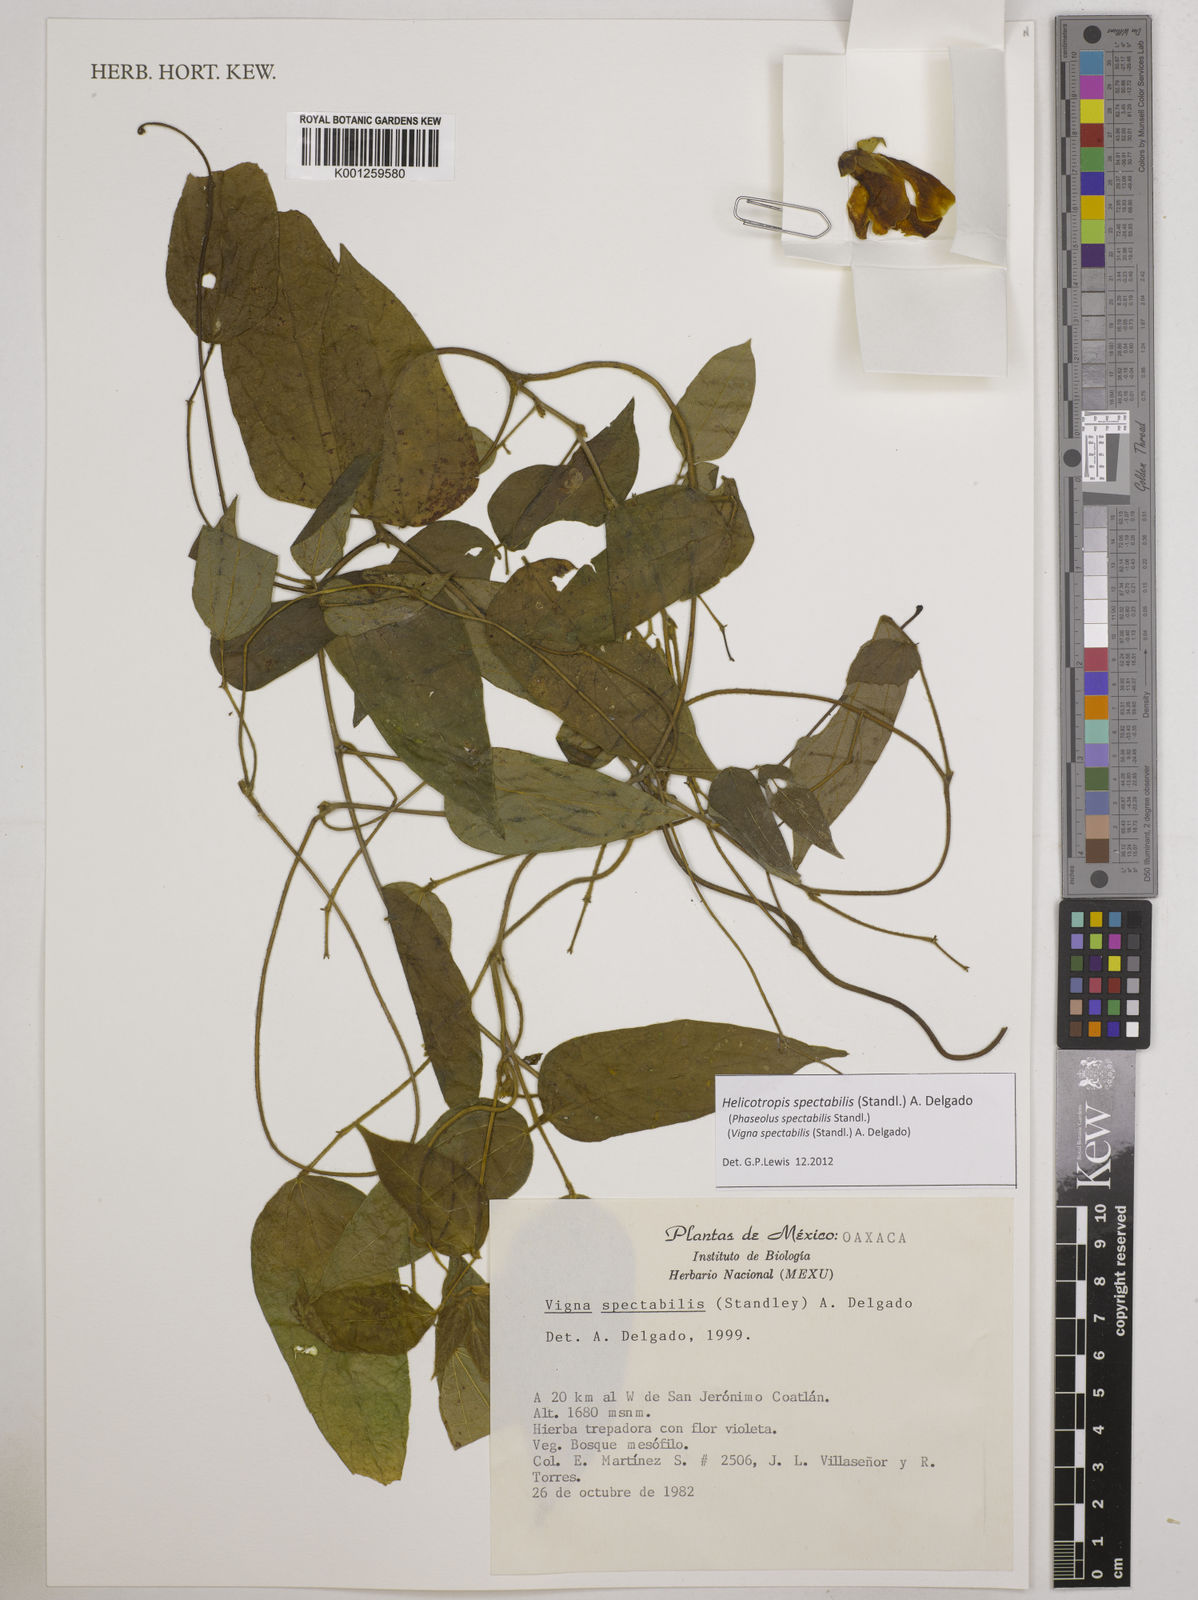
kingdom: Plantae
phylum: Tracheophyta
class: Magnoliopsida
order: Fabales
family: Fabaceae
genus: Helicotropis
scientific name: Helicotropis spectabilis
